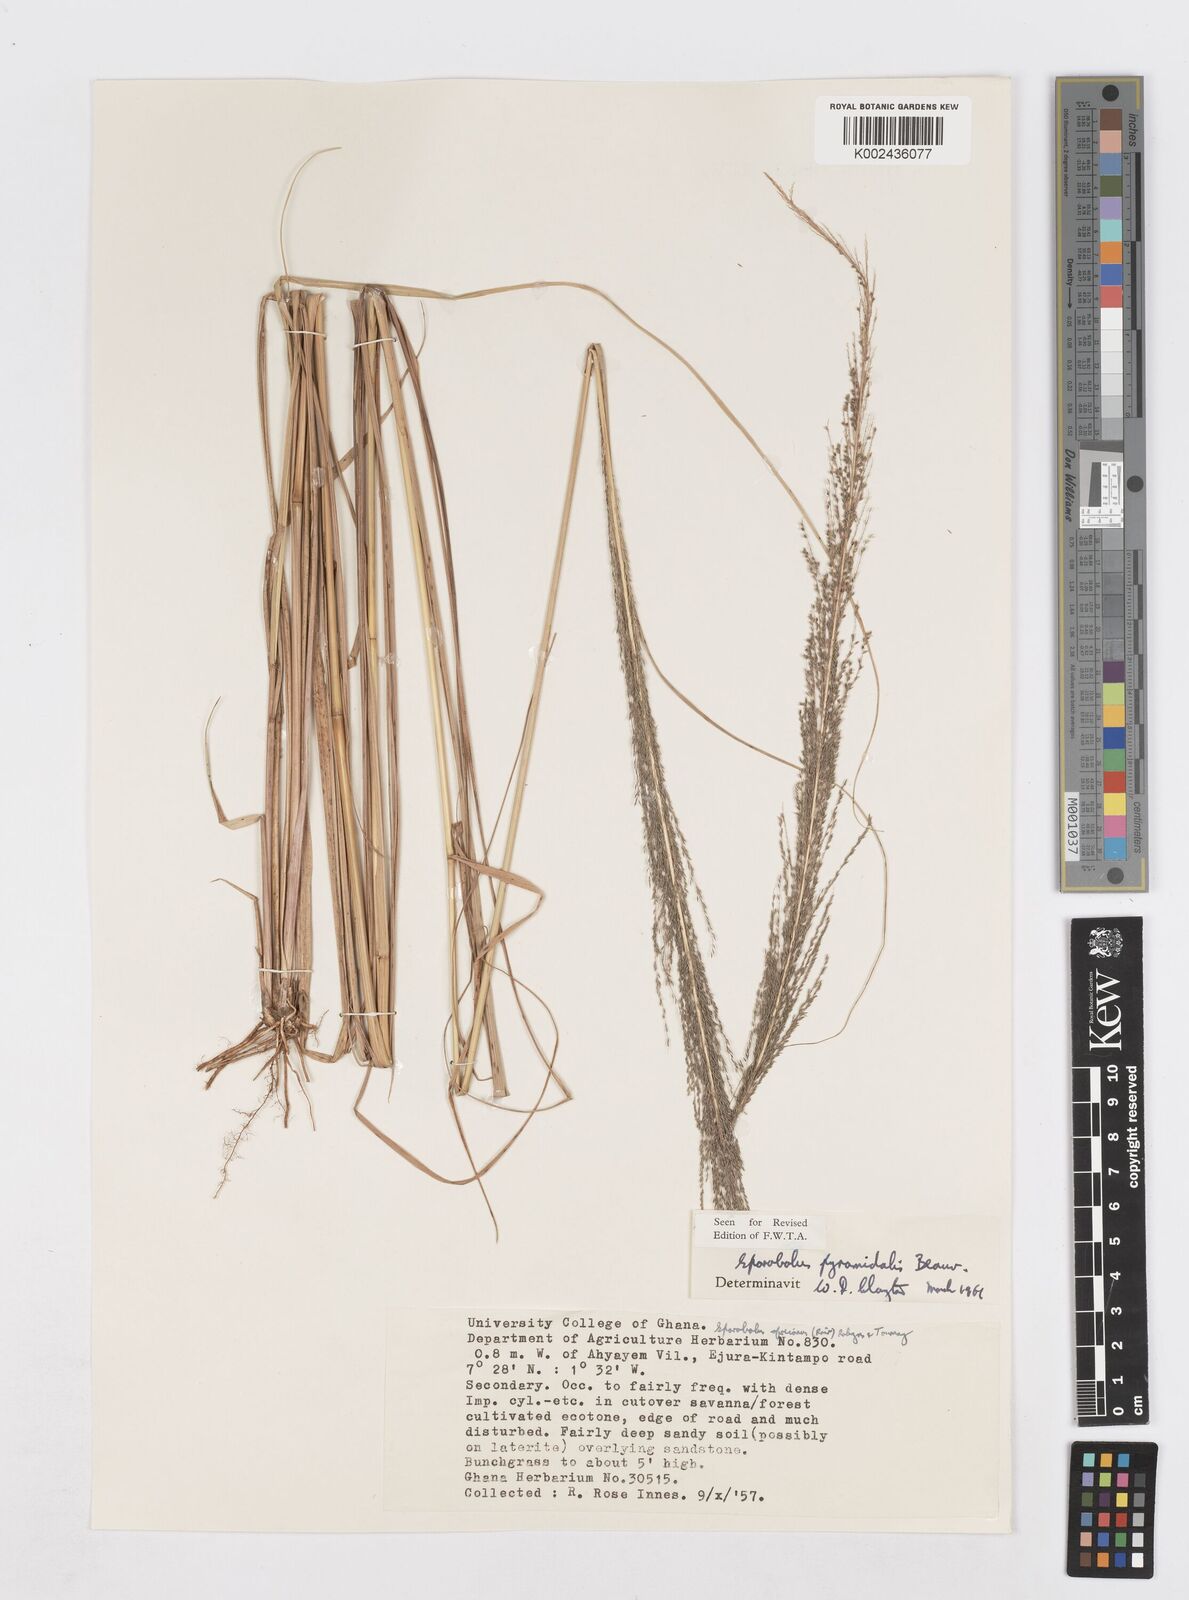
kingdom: Plantae
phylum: Tracheophyta
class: Liliopsida
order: Poales
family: Poaceae
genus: Sporobolus
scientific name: Sporobolus pyramidalis
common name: West indian dropseed
